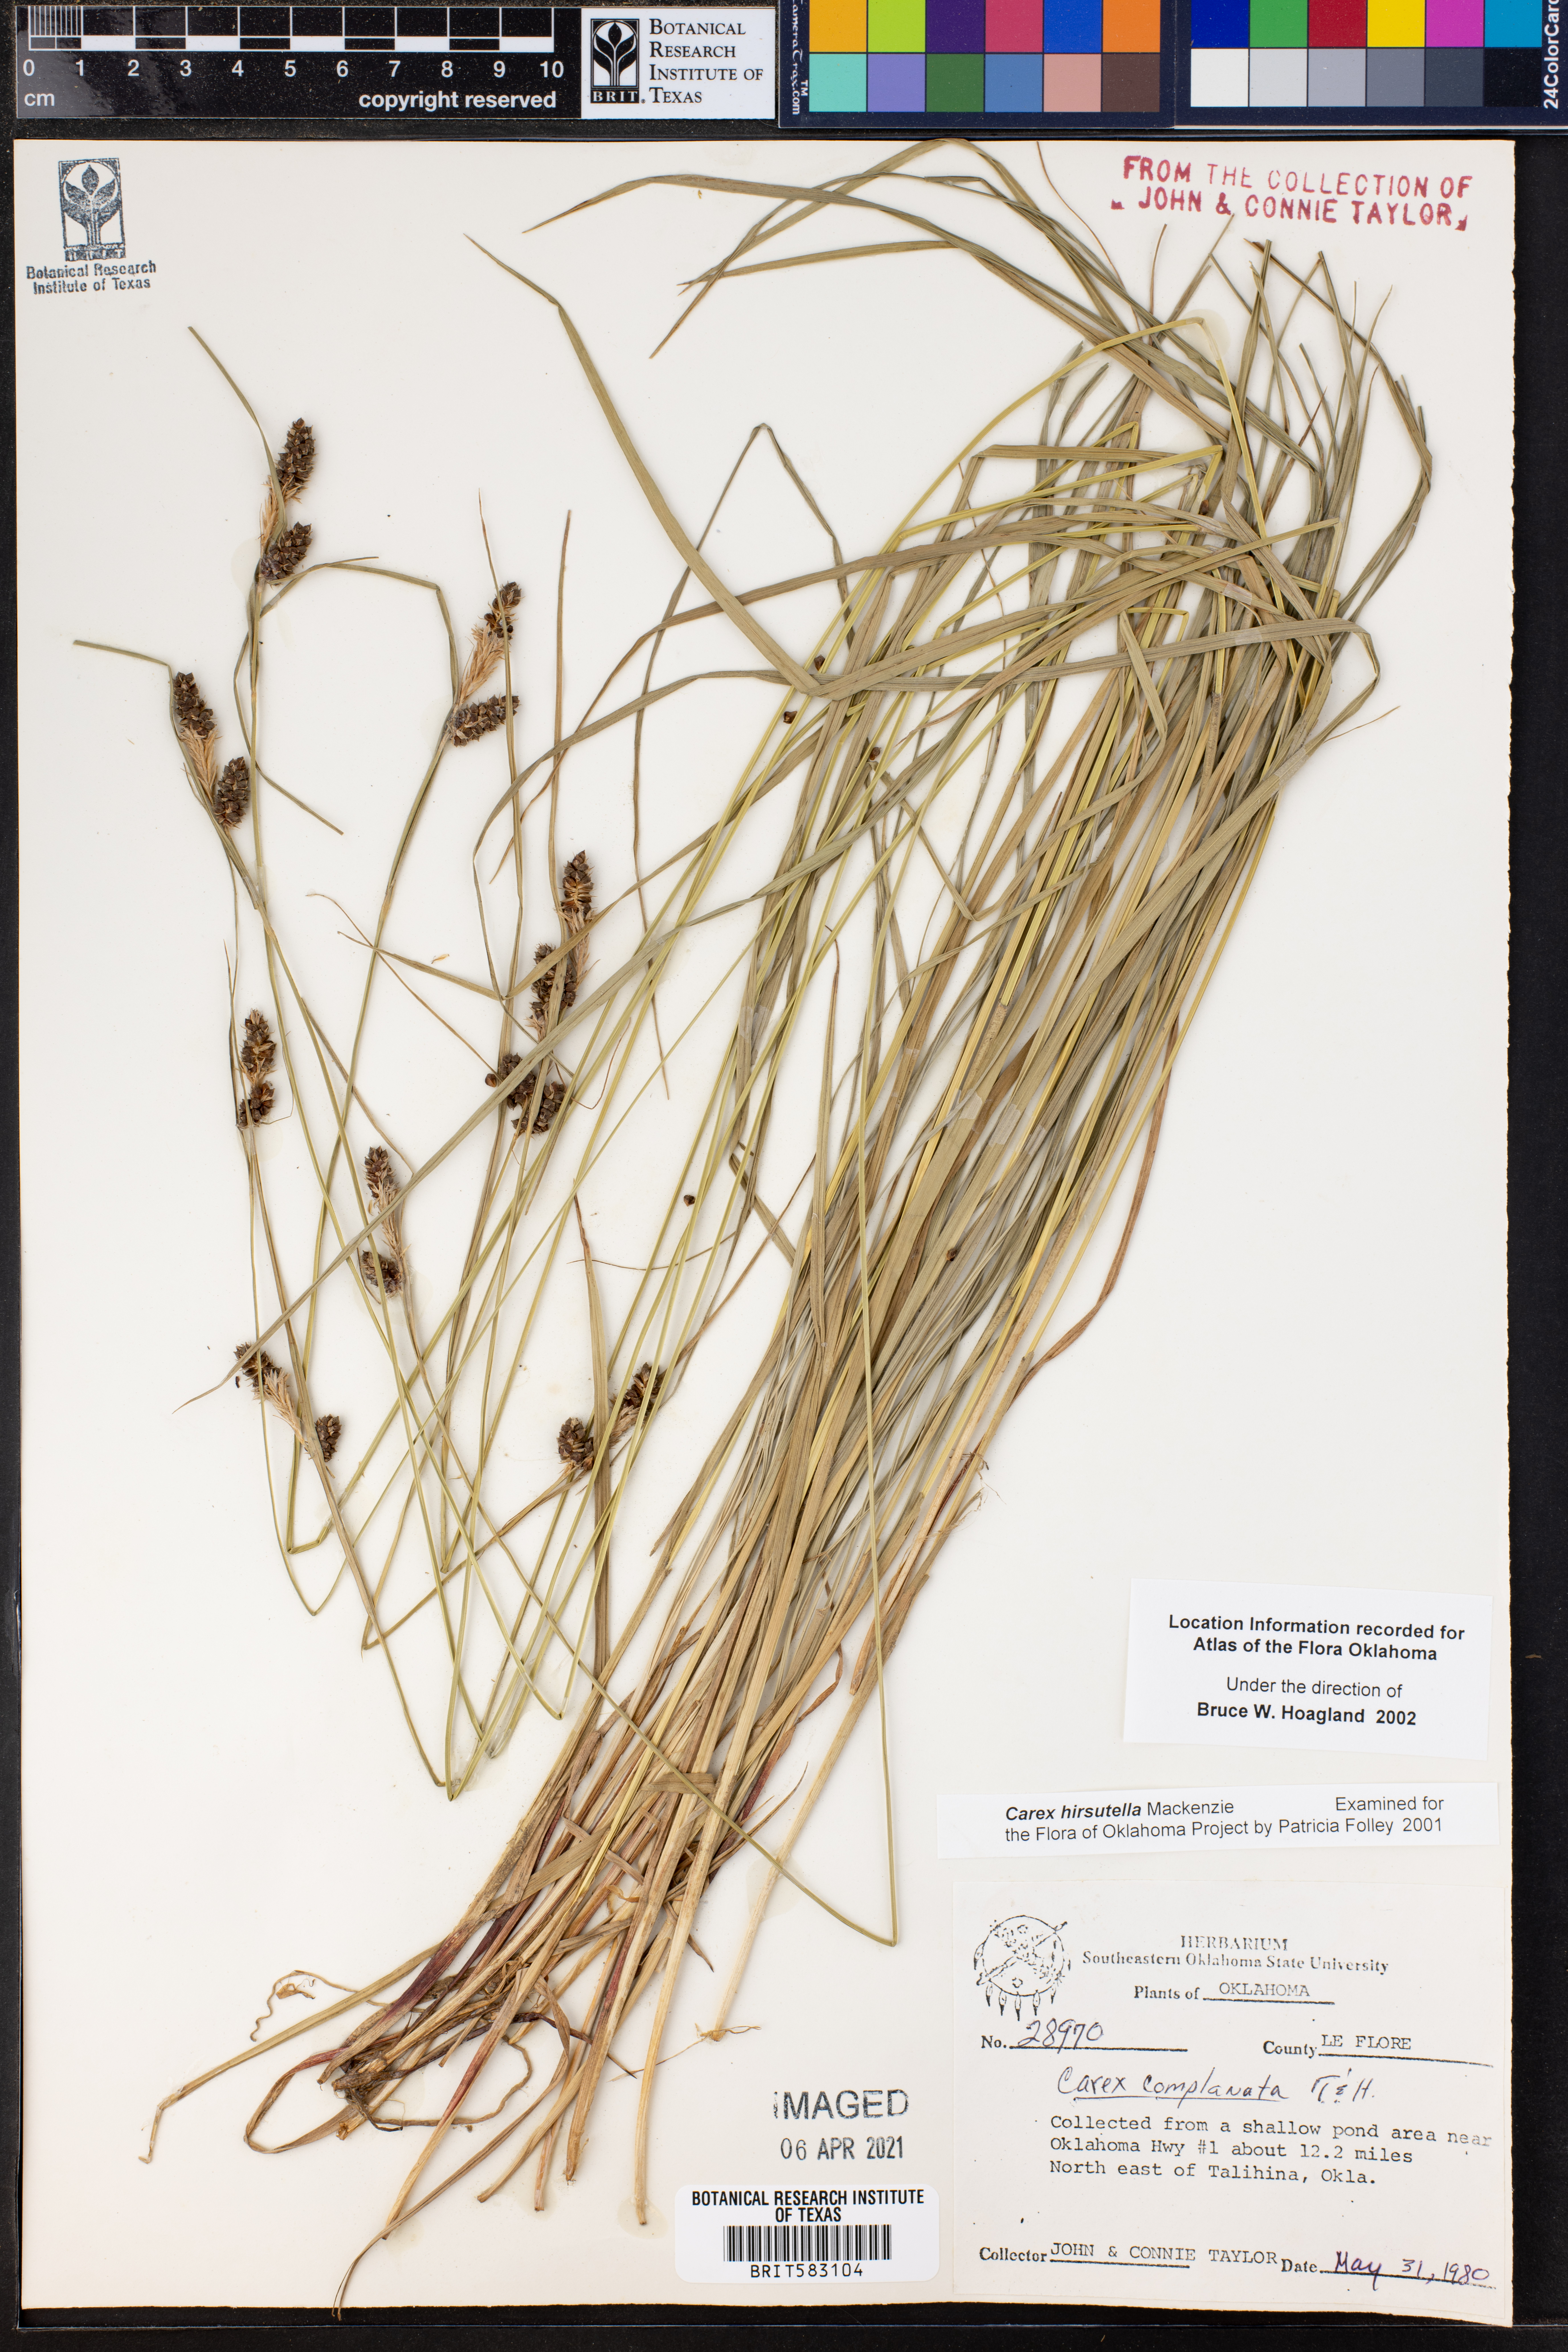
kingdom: Plantae
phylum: Tracheophyta
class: Liliopsida
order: Poales
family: Cyperaceae
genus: Carex
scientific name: Carex hirsutella
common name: Fuzzy wuzzy sedge
